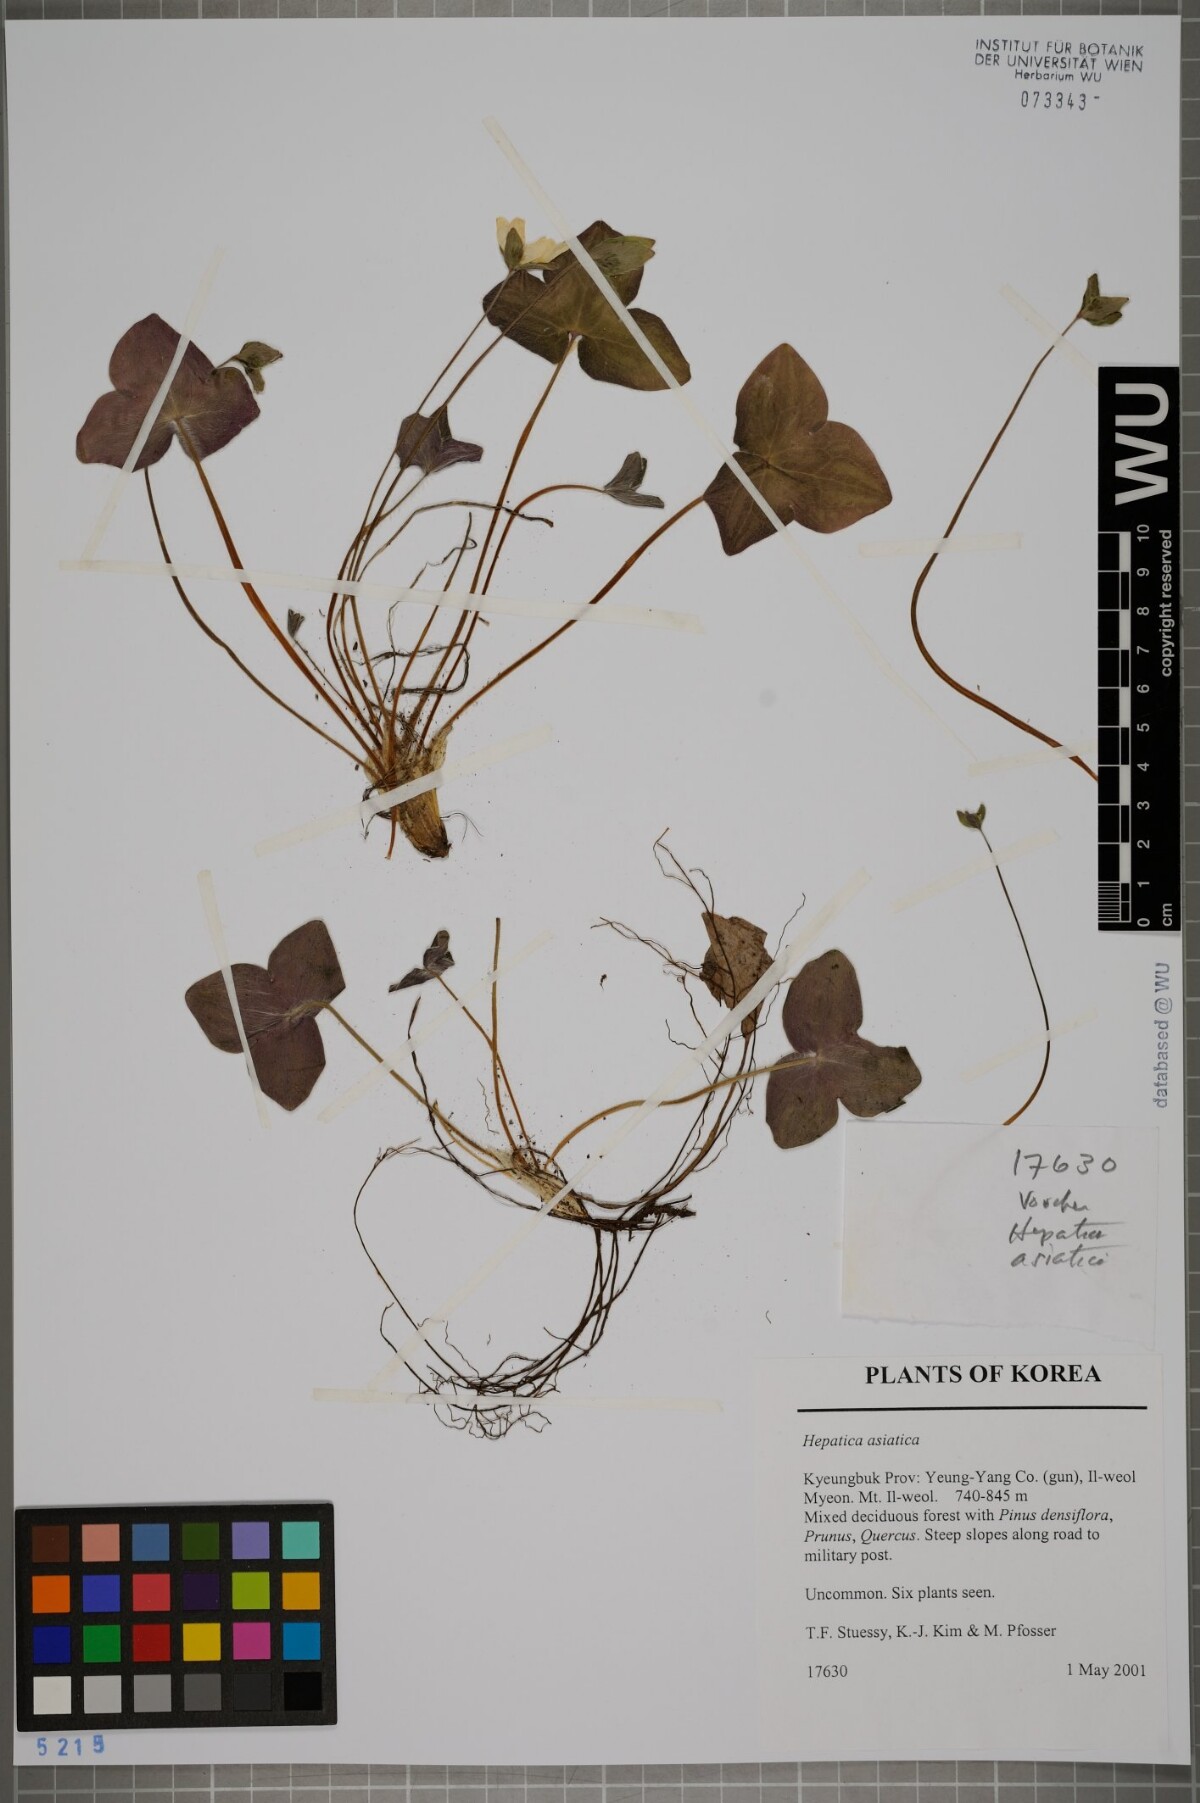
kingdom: Plantae
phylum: Tracheophyta
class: Magnoliopsida
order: Ranunculales
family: Ranunculaceae
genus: Hepatica
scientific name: Hepatica asiatica
